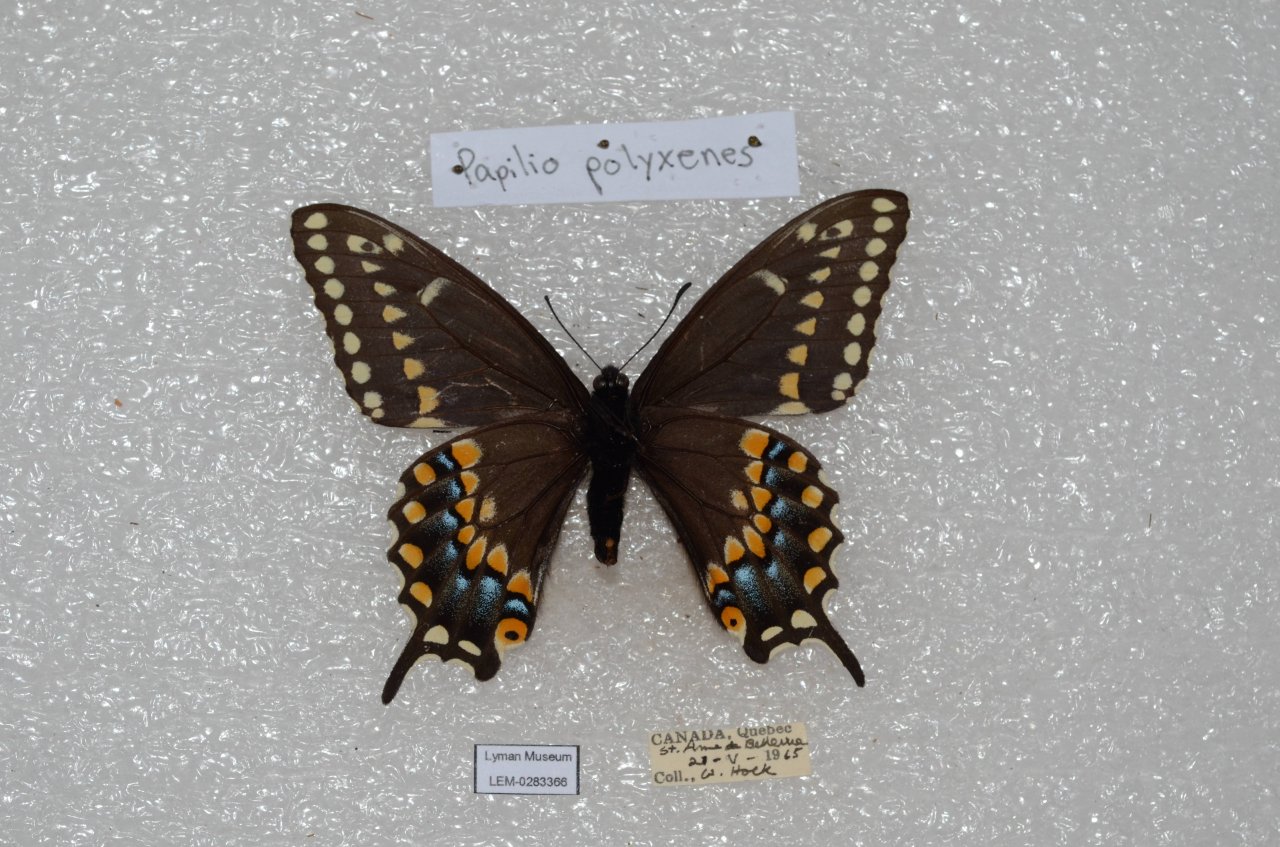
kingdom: Animalia
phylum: Arthropoda
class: Insecta
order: Lepidoptera
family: Papilionidae
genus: Papilio
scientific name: Papilio polyxenes
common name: Black Swallowtail
